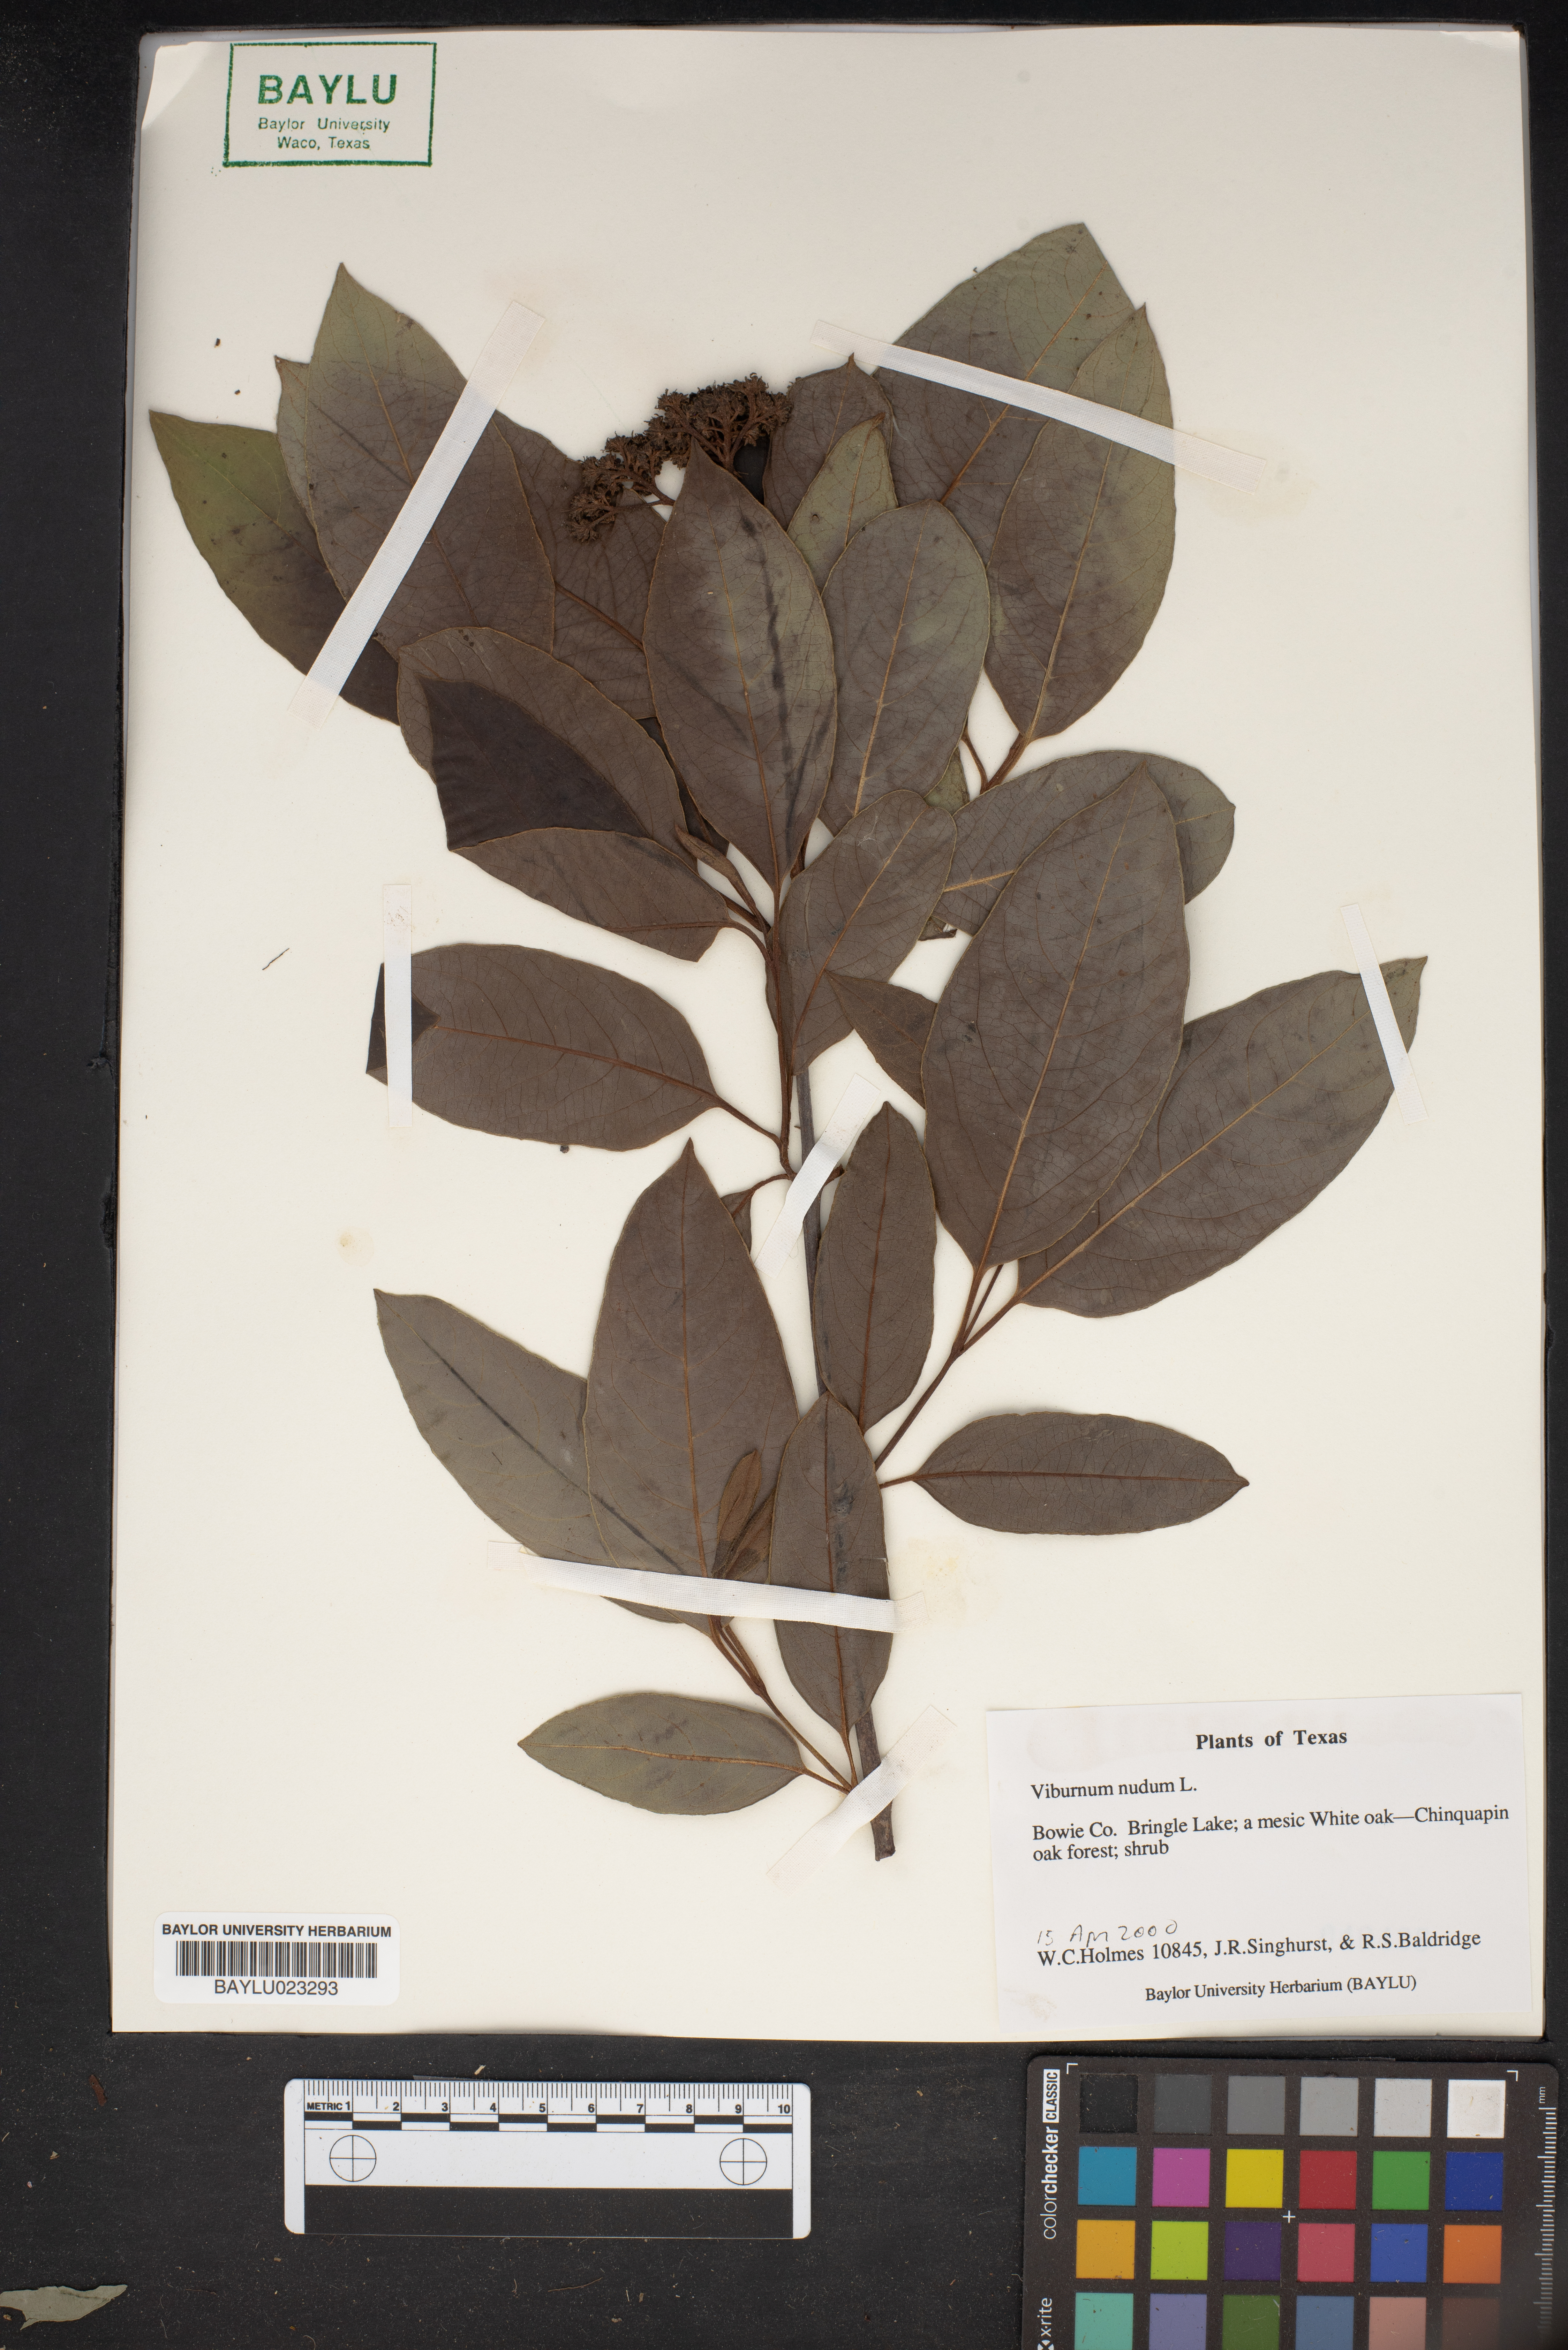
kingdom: Plantae
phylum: Tracheophyta
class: Magnoliopsida
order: Dipsacales
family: Viburnaceae
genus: Viburnum
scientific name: Viburnum nudum
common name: Possum haw
